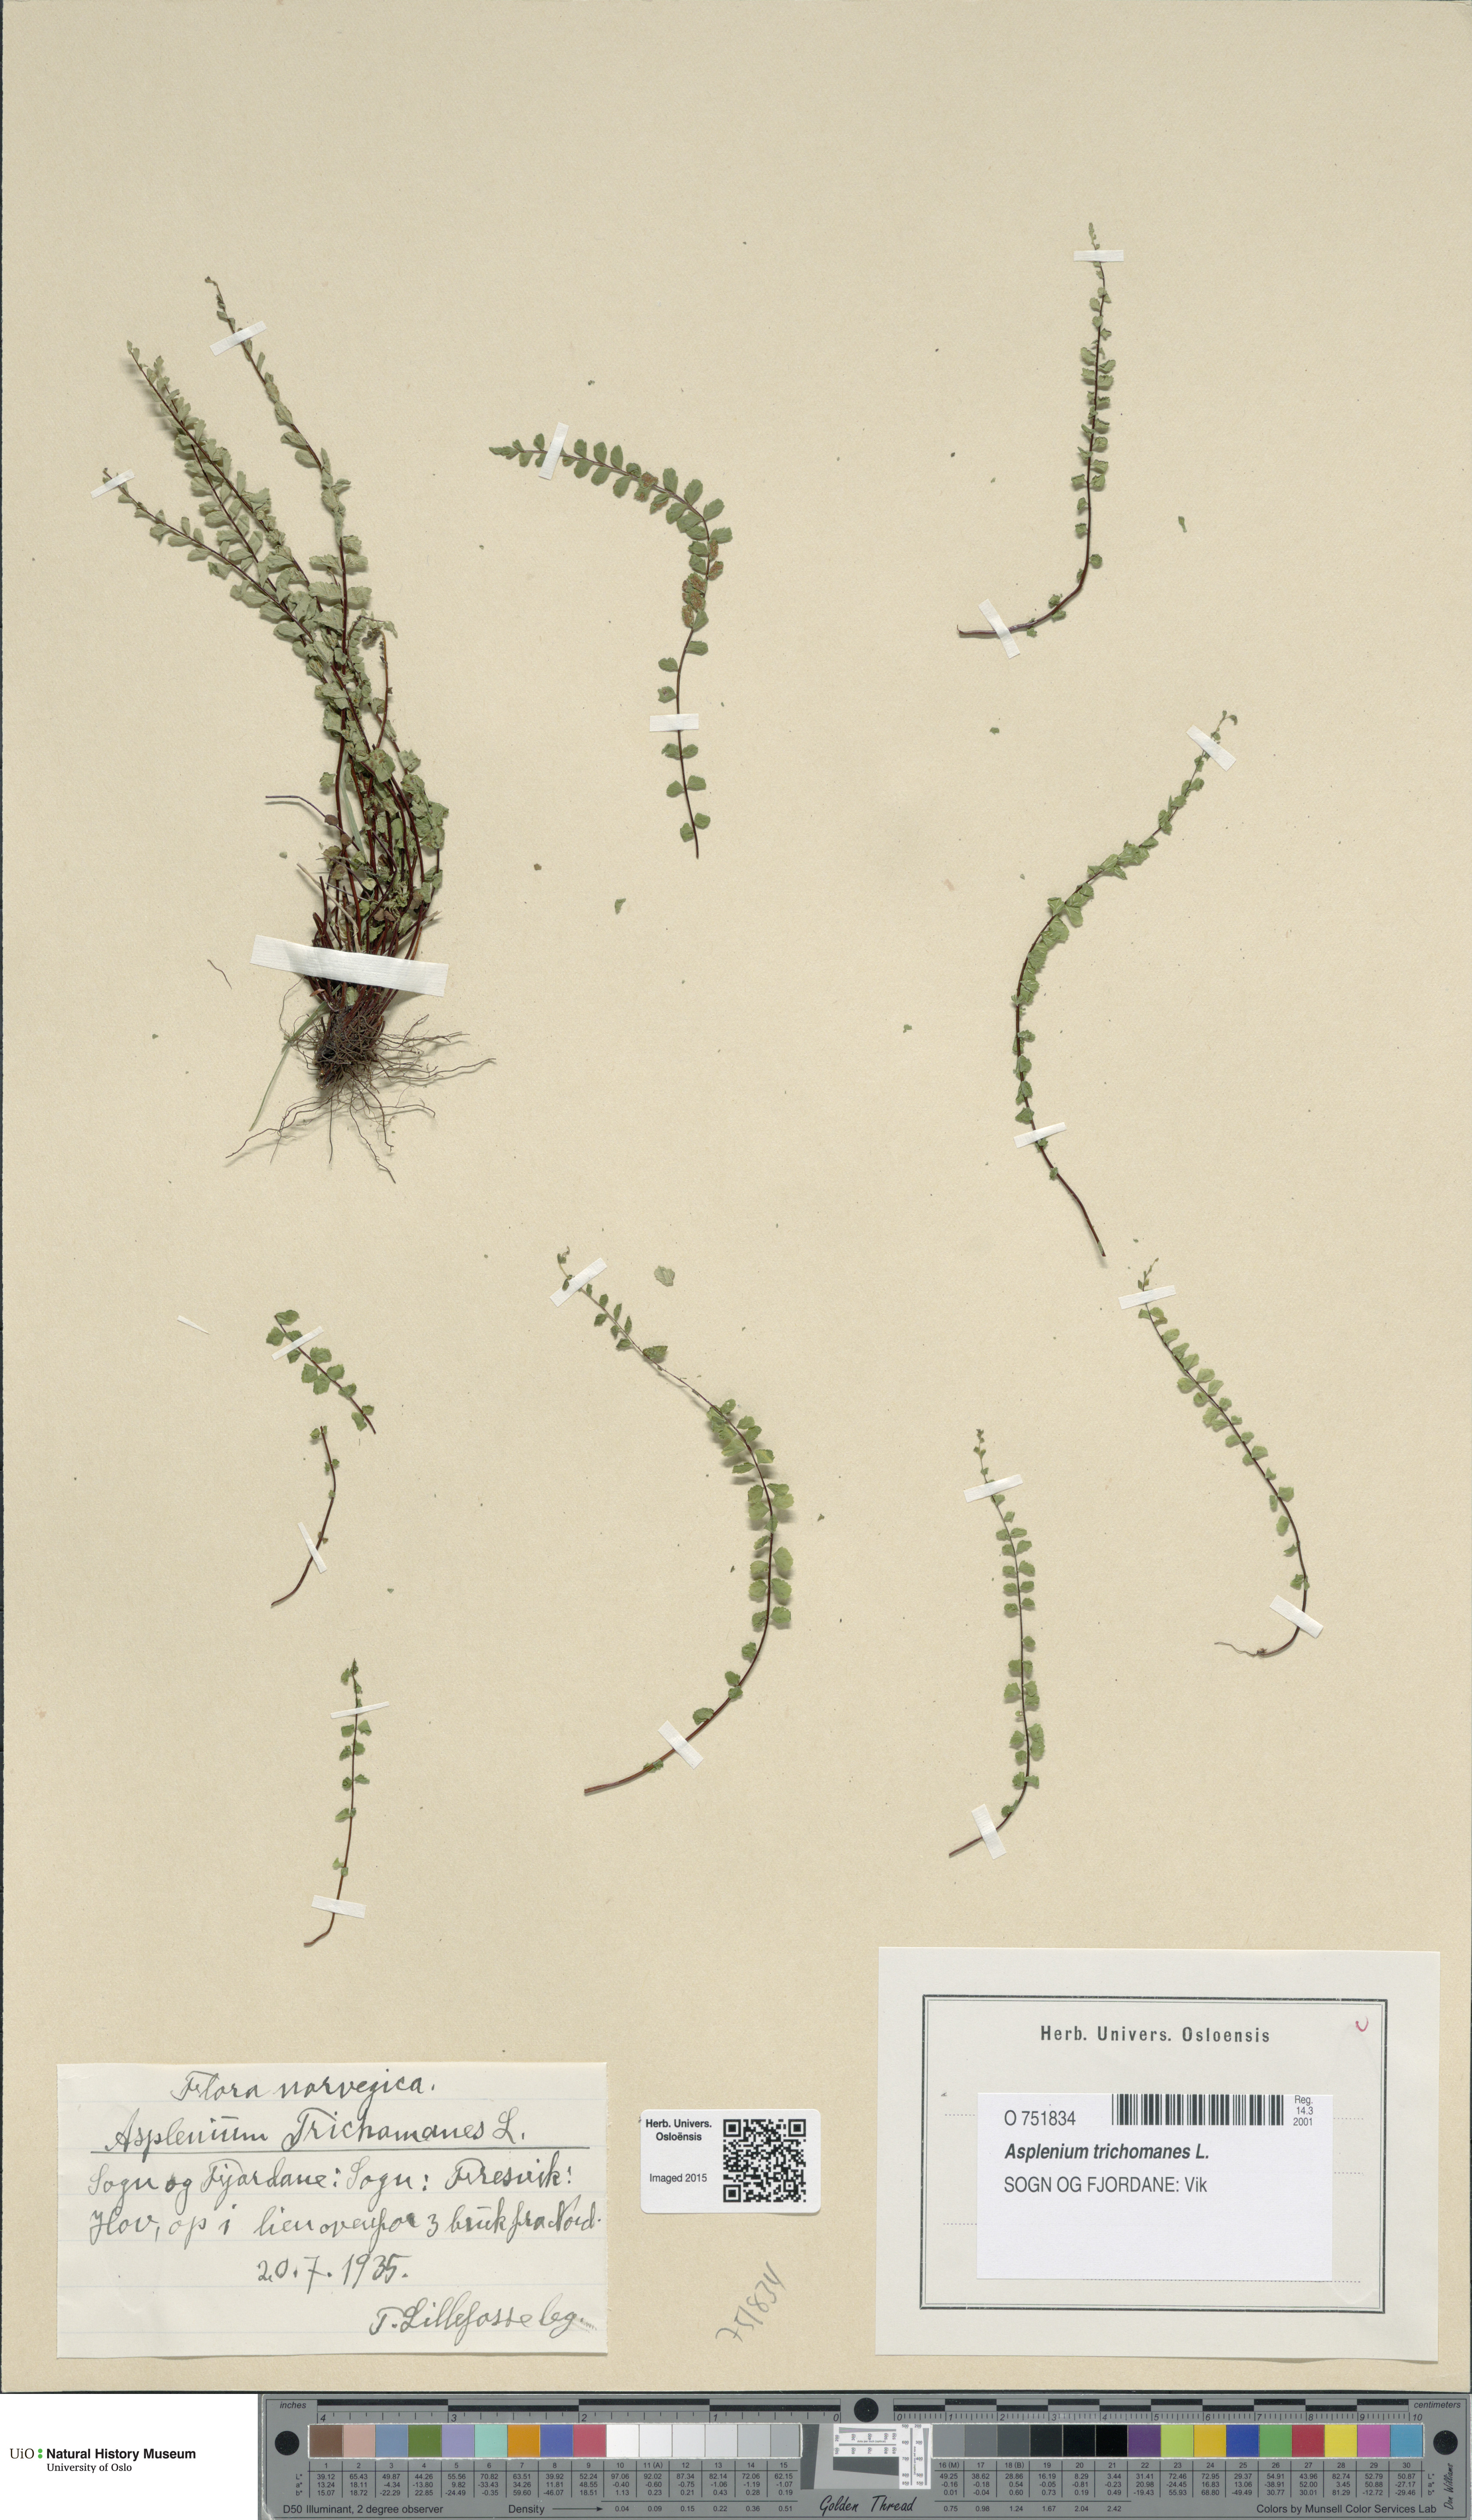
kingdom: Plantae
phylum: Tracheophyta
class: Polypodiopsida
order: Polypodiales
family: Aspleniaceae
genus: Asplenium
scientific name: Asplenium trichomanes
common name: Maidenhair spleenwort
